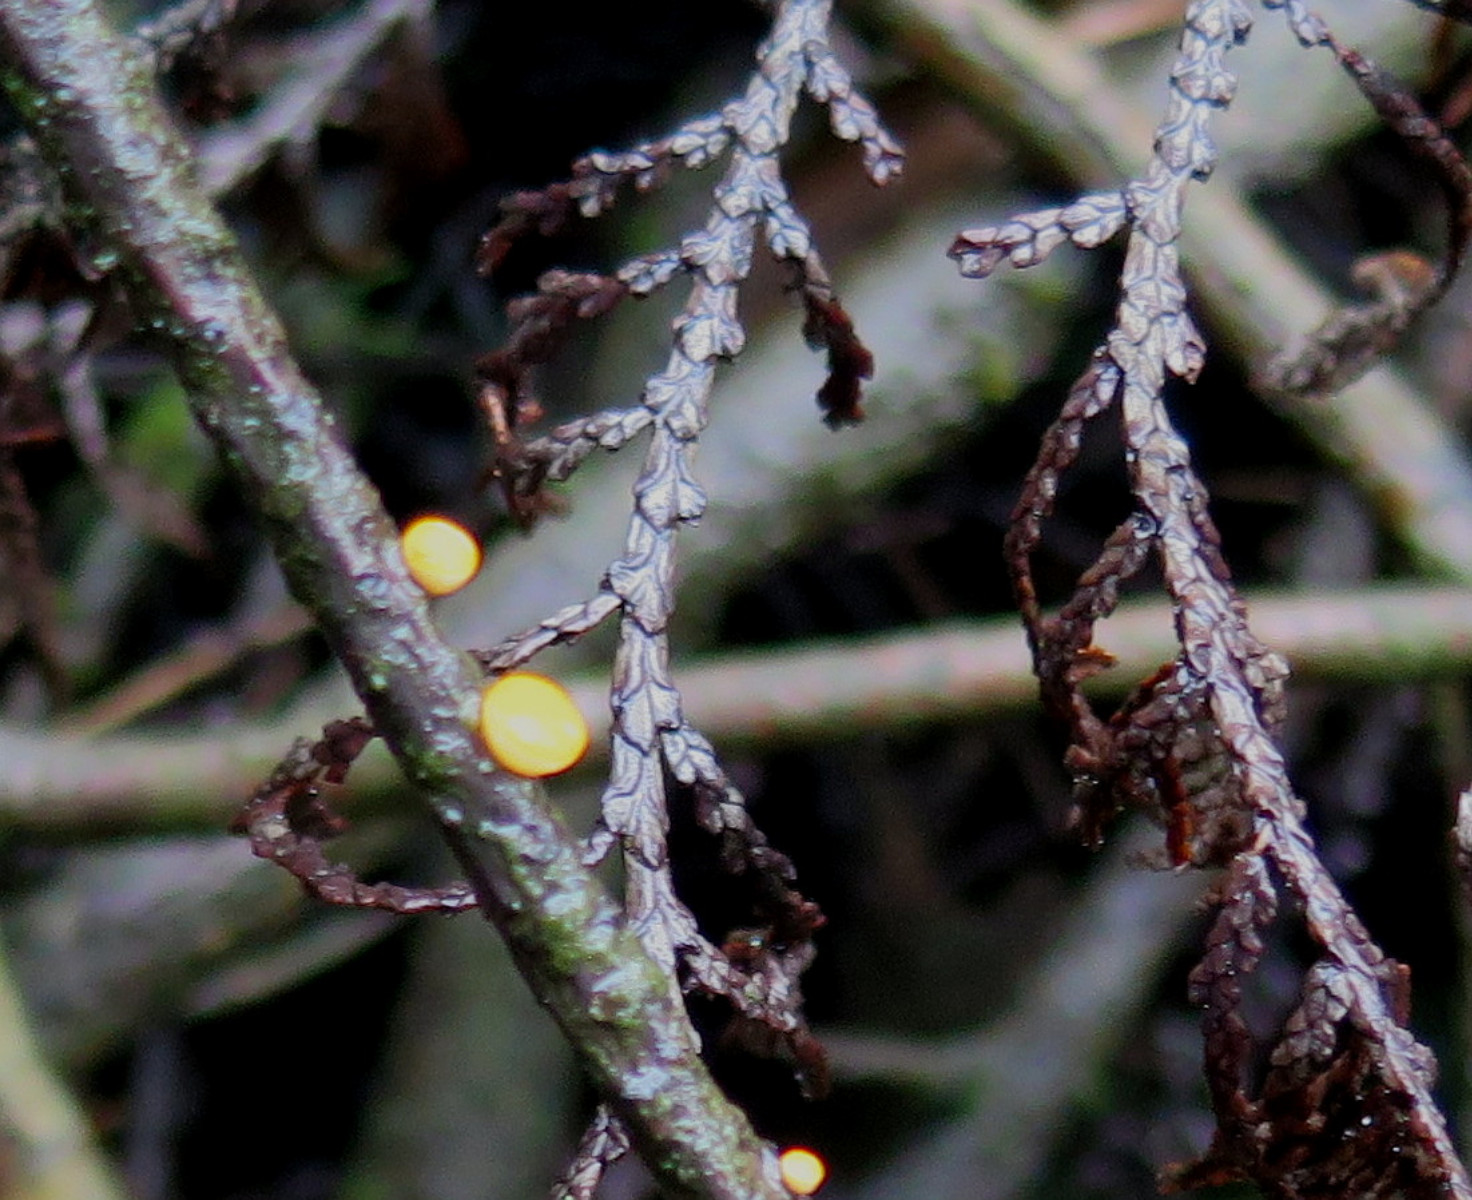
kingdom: Fungi
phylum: Ascomycota
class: Pezizomycetes
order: Pezizales
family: Sarcoscyphaceae
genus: Pithya
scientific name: Pithya vulgaris
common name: stor dukatbæger
